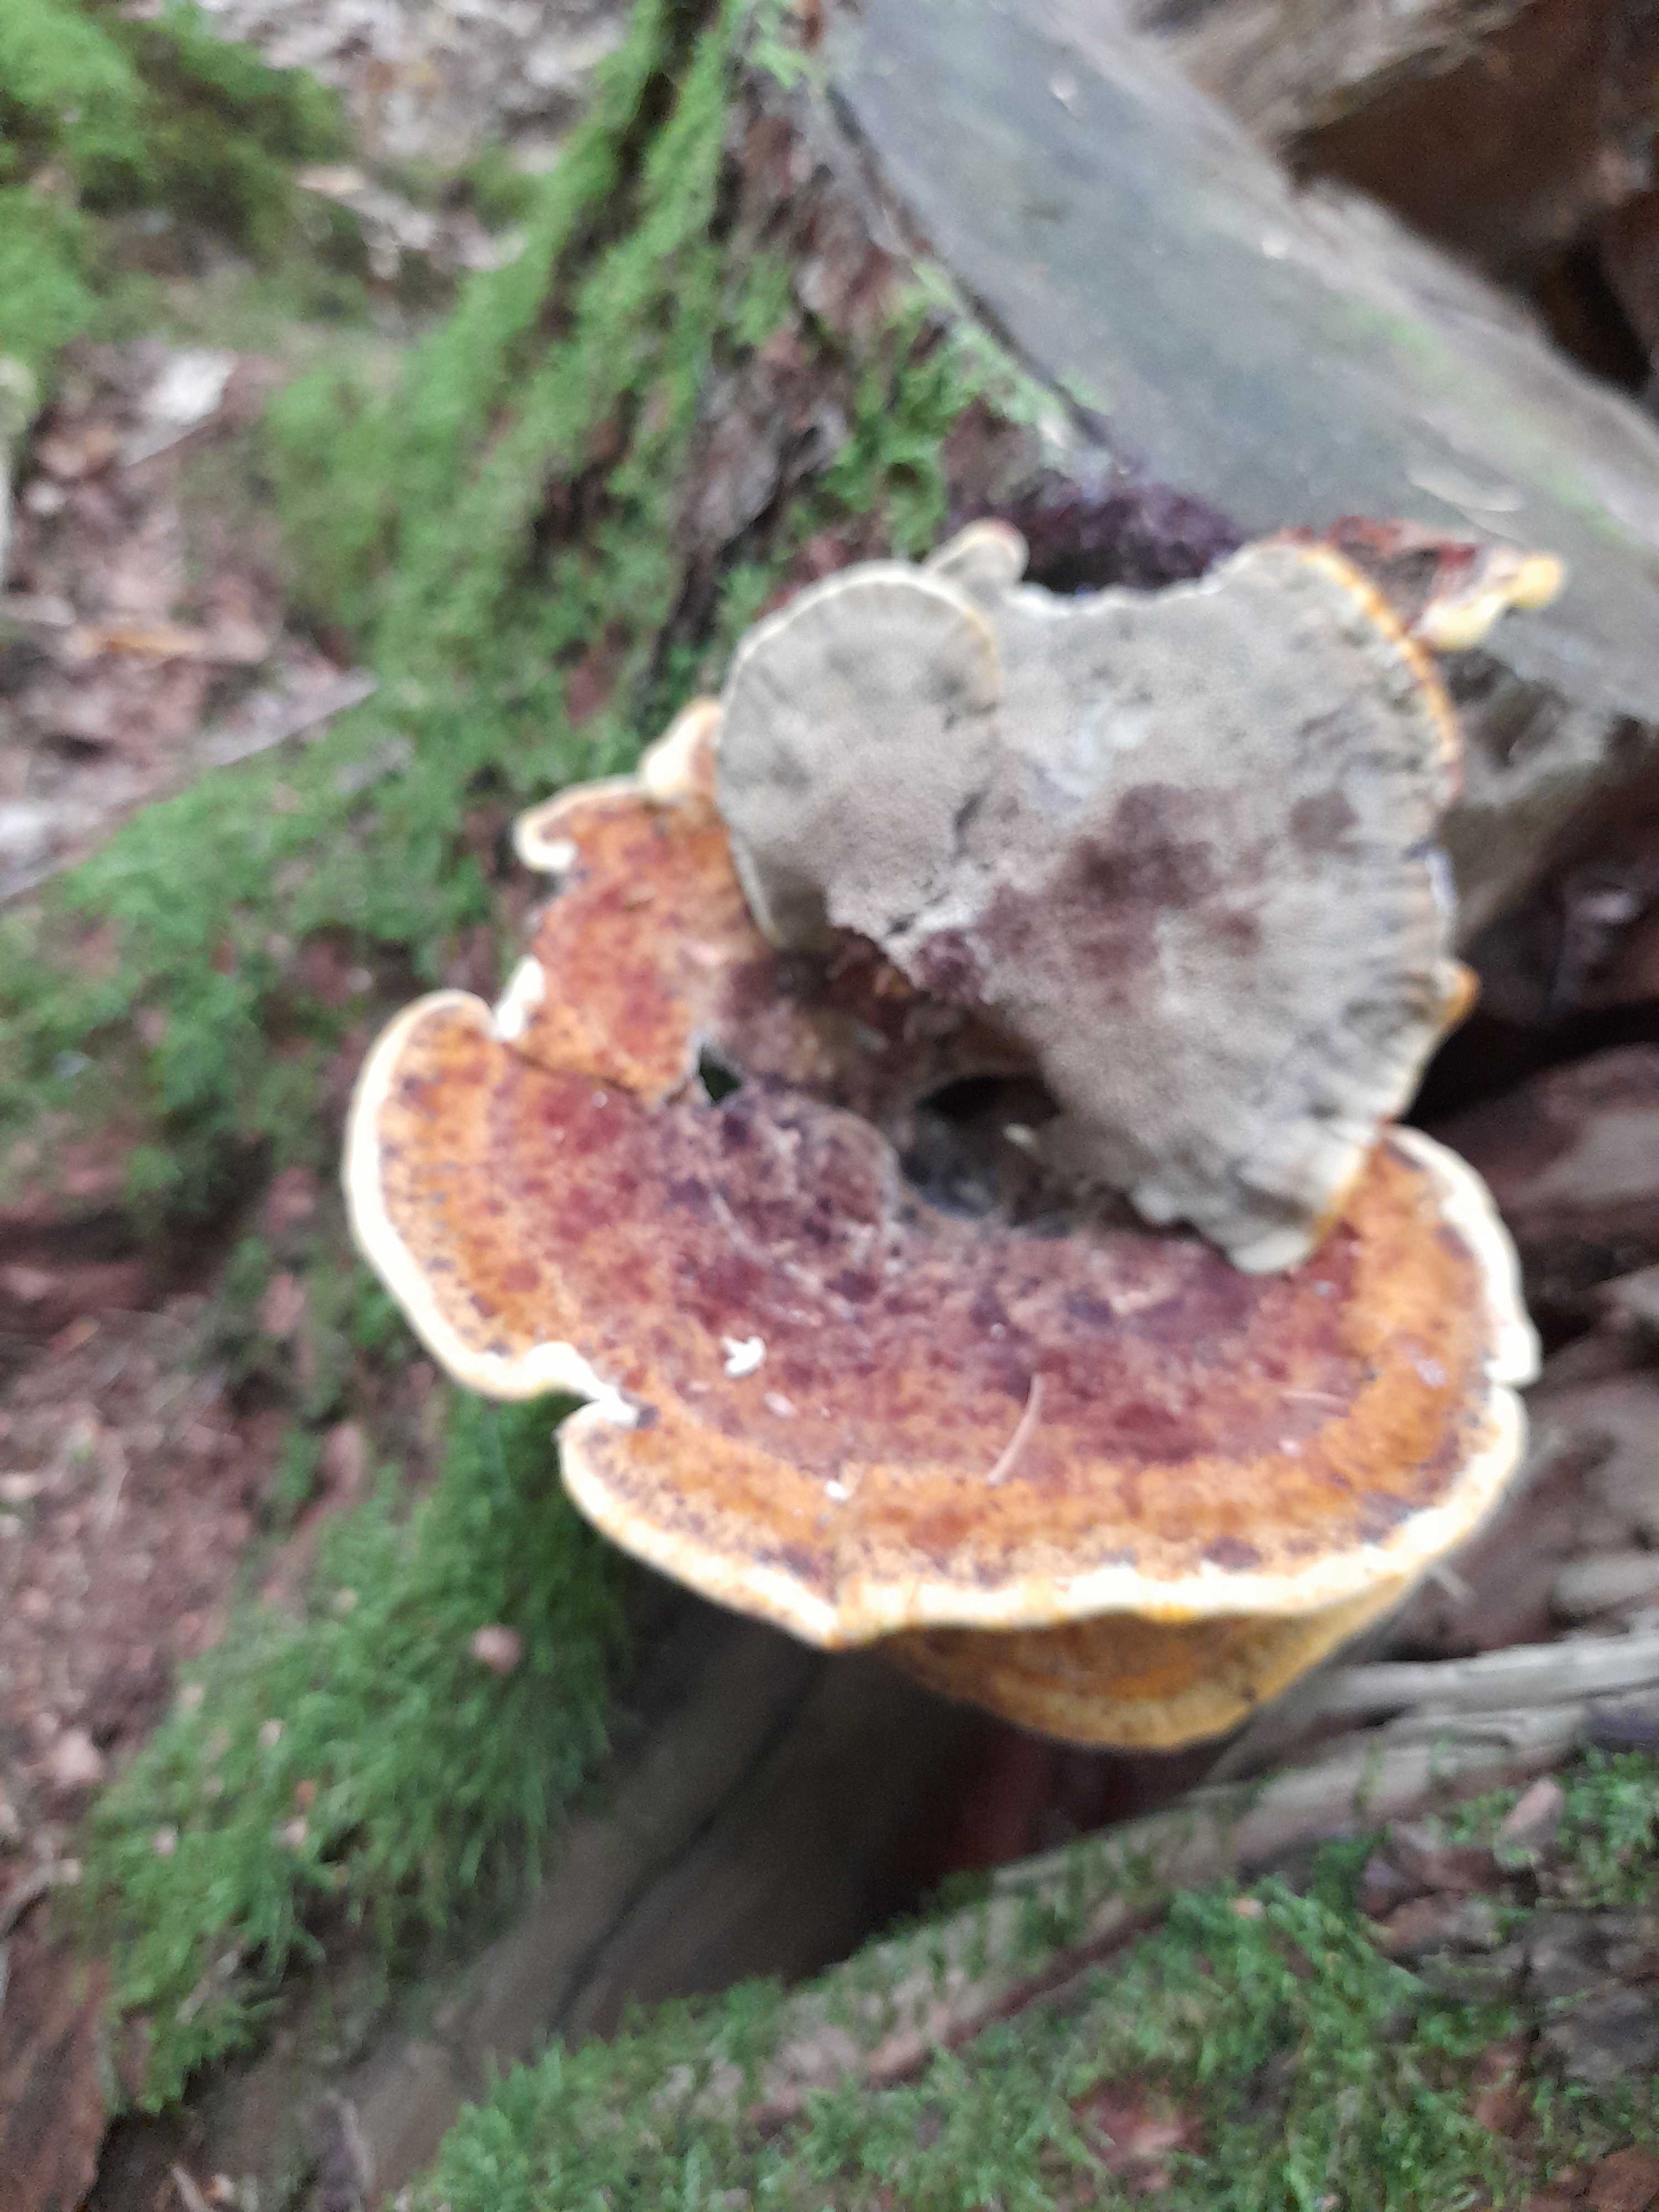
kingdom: Fungi
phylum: Basidiomycota
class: Agaricomycetes
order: Polyporales
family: Laetiporaceae
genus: Phaeolus
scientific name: Phaeolus schweinitzii
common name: brunporesvamp
